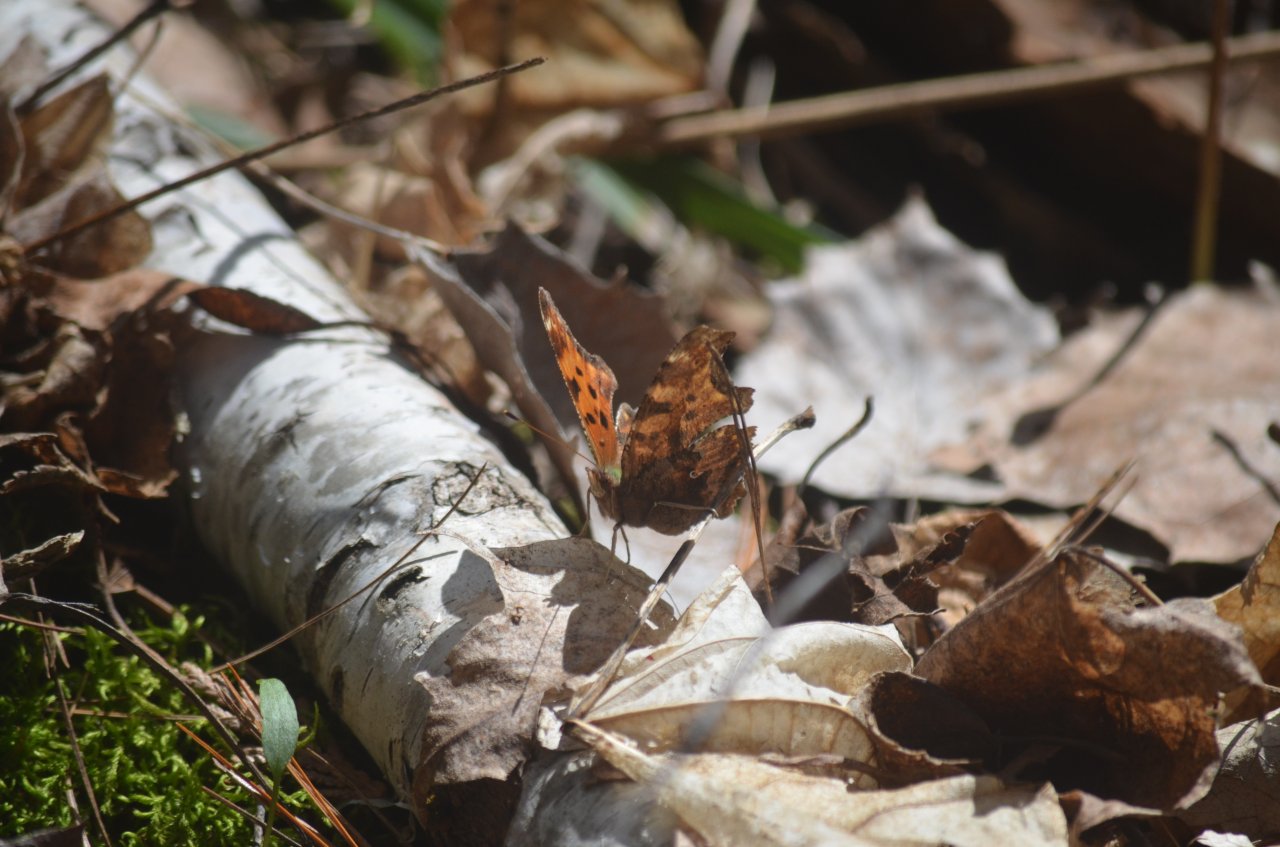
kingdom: Animalia
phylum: Arthropoda
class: Insecta
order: Lepidoptera
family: Nymphalidae
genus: Polygonia
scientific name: Polygonia comma
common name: Eastern Comma
